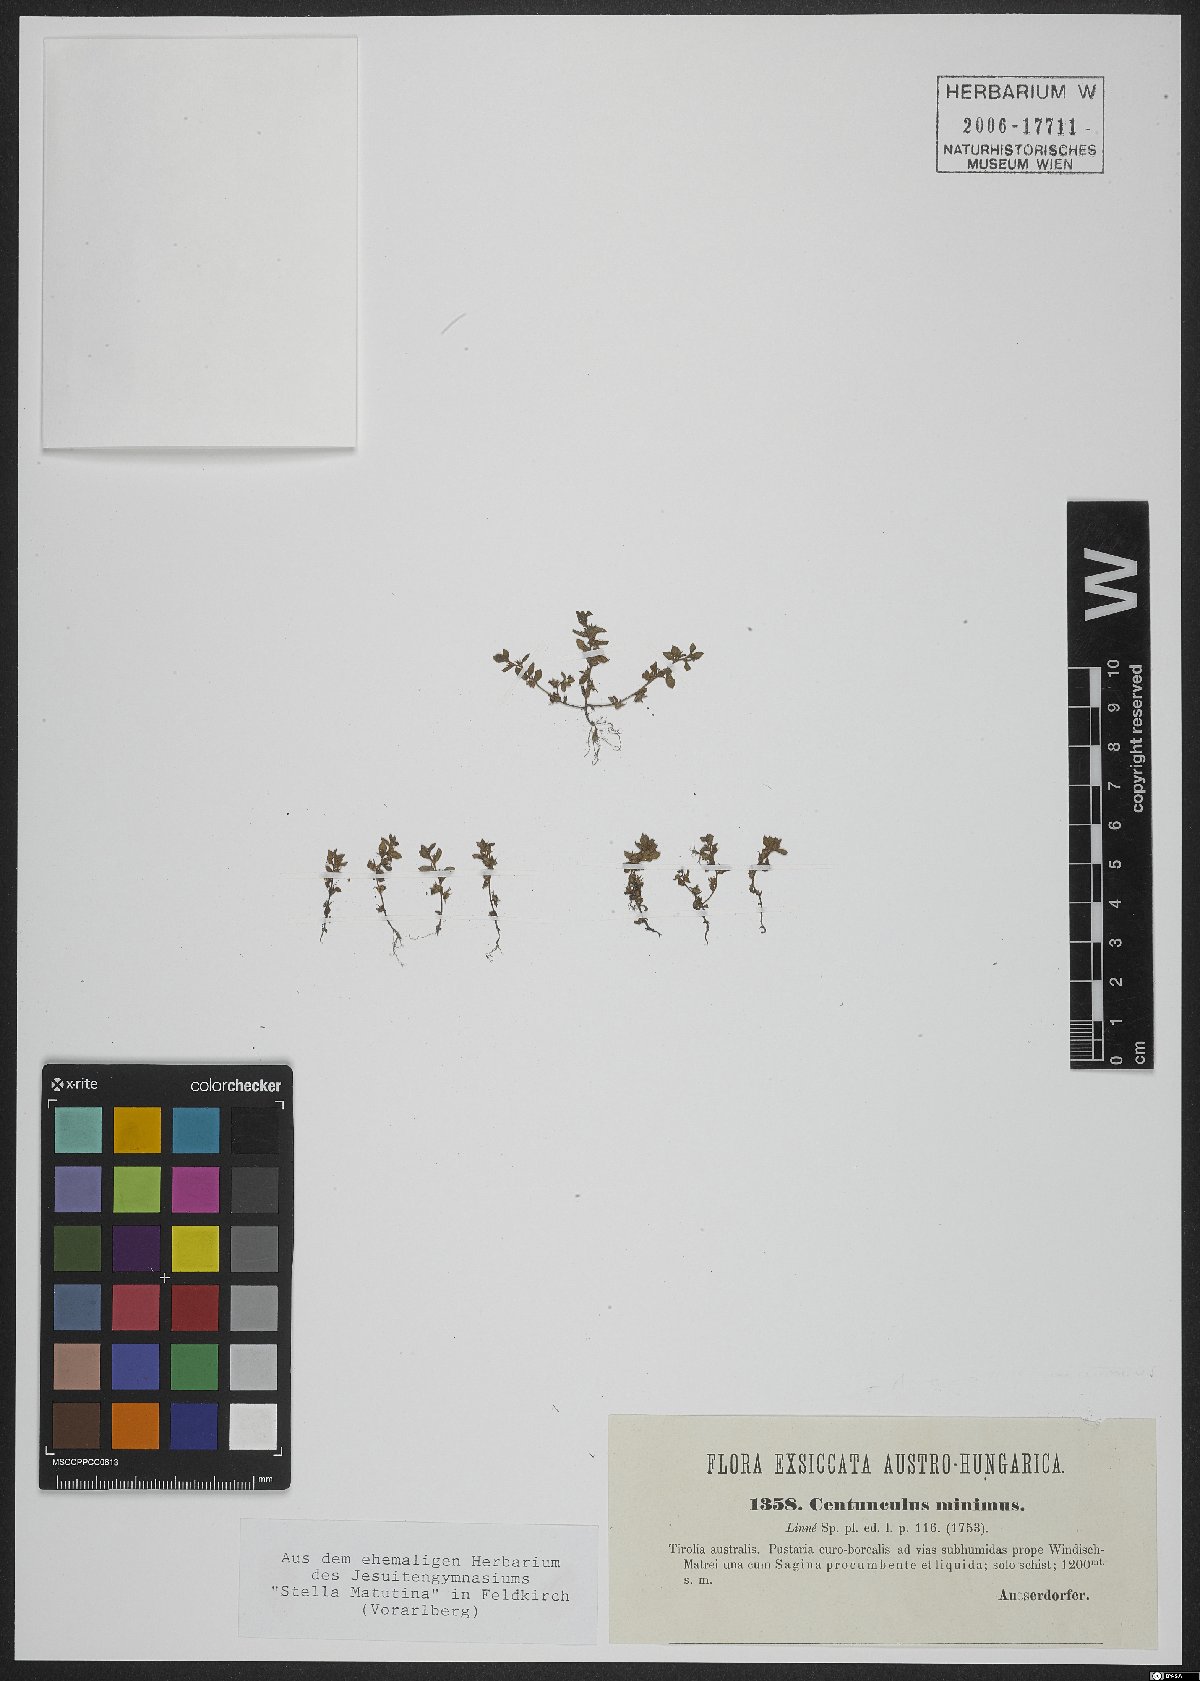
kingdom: Plantae
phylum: Tracheophyta
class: Magnoliopsida
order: Ericales
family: Primulaceae
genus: Lysimachia
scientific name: Lysimachia minima
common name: Chaffweed
